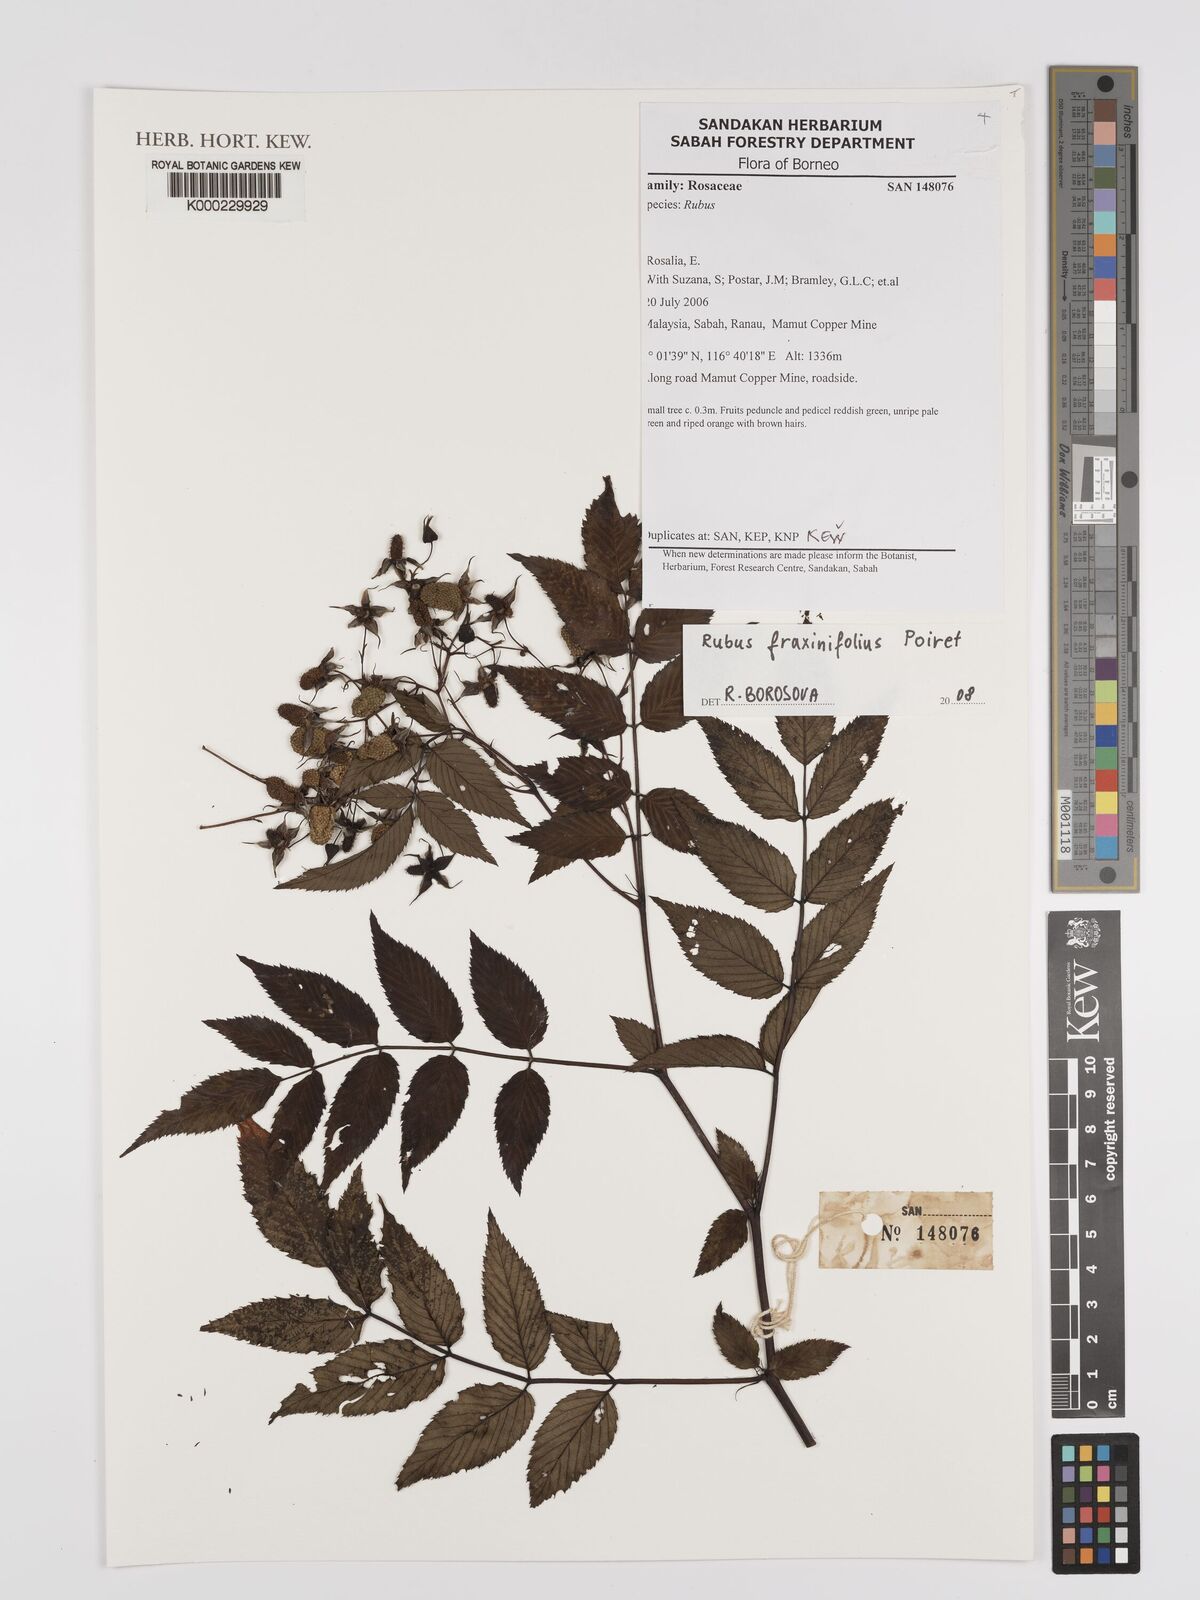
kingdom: Plantae
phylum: Tracheophyta
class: Magnoliopsida
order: Rosales
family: Rosaceae
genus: Rubus
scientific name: Rubus fraxinifolius
